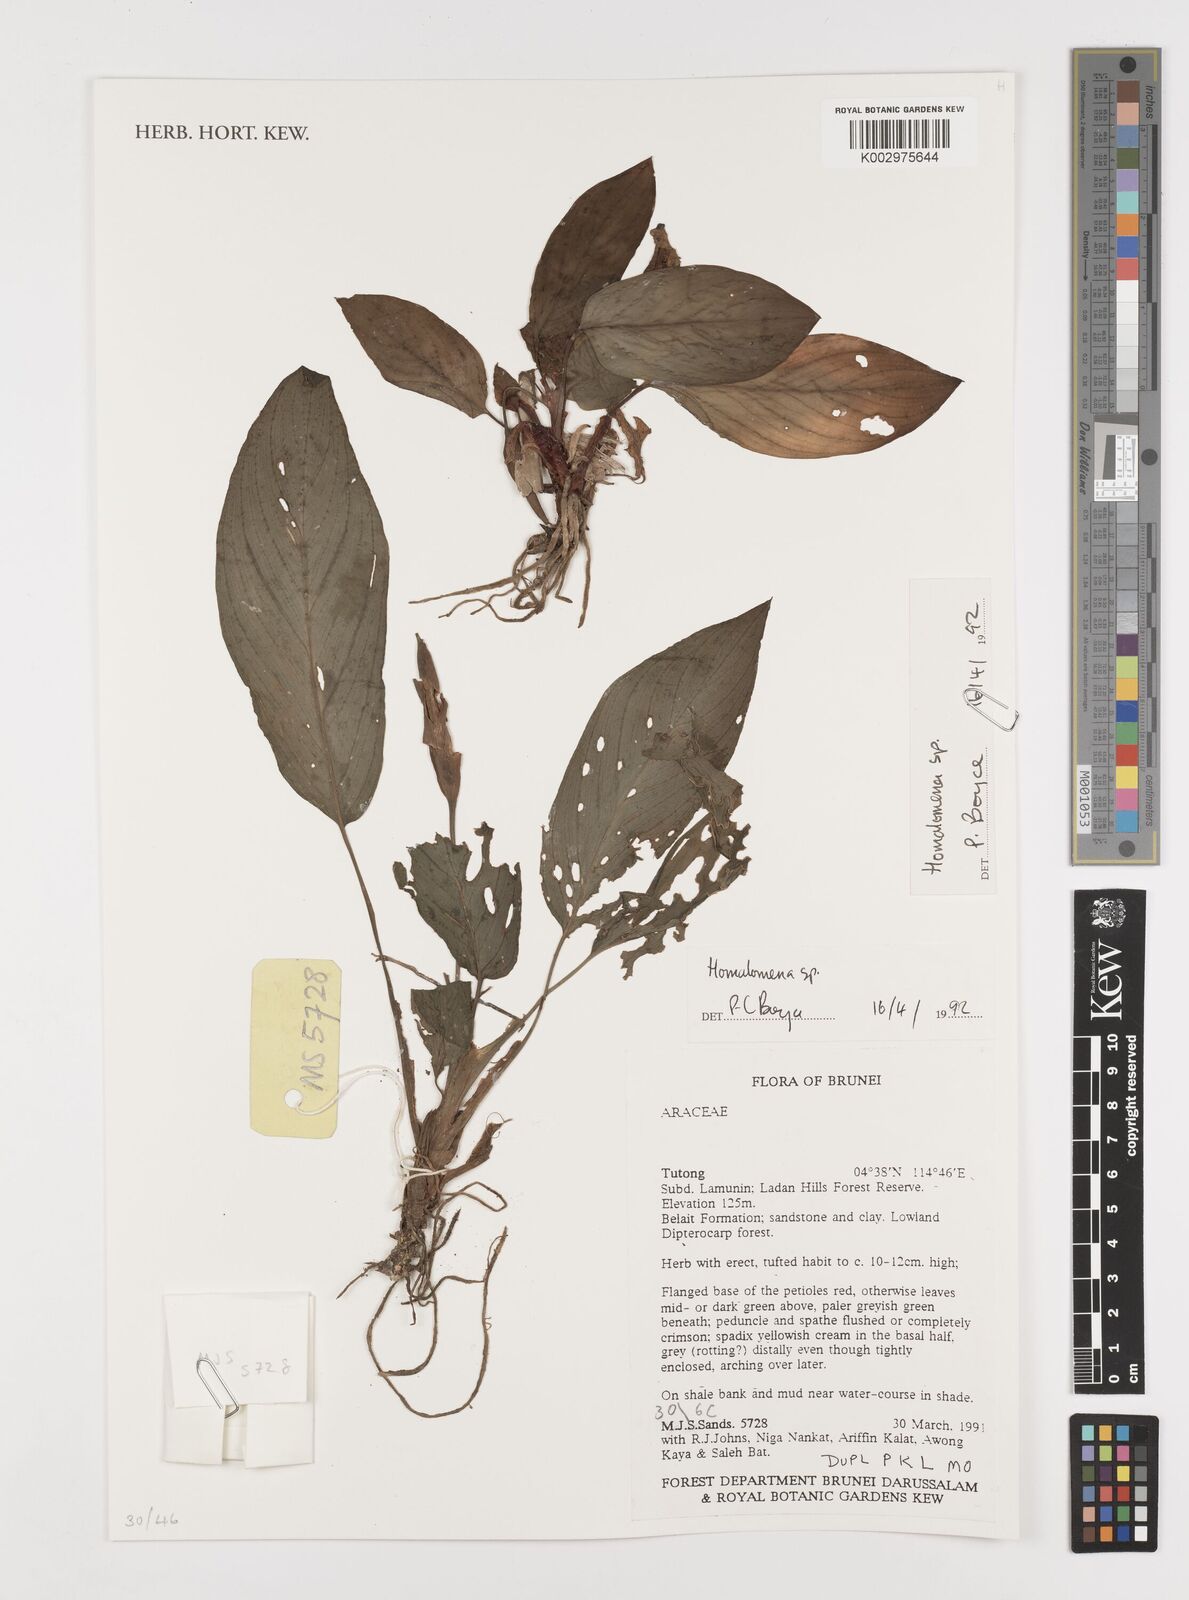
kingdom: Plantae
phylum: Tracheophyta
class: Liliopsida
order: Alismatales
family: Araceae
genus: Homalomena
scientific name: Homalomena
